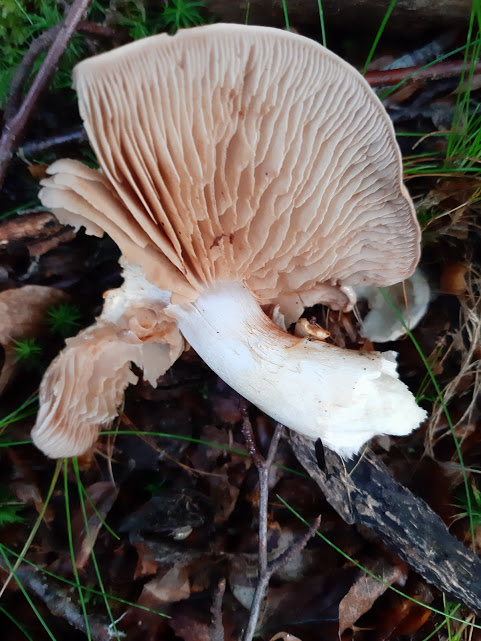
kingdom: Fungi
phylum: Basidiomycota
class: Agaricomycetes
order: Agaricales
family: Cortinariaceae
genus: Cortinarius
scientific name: Cortinarius
